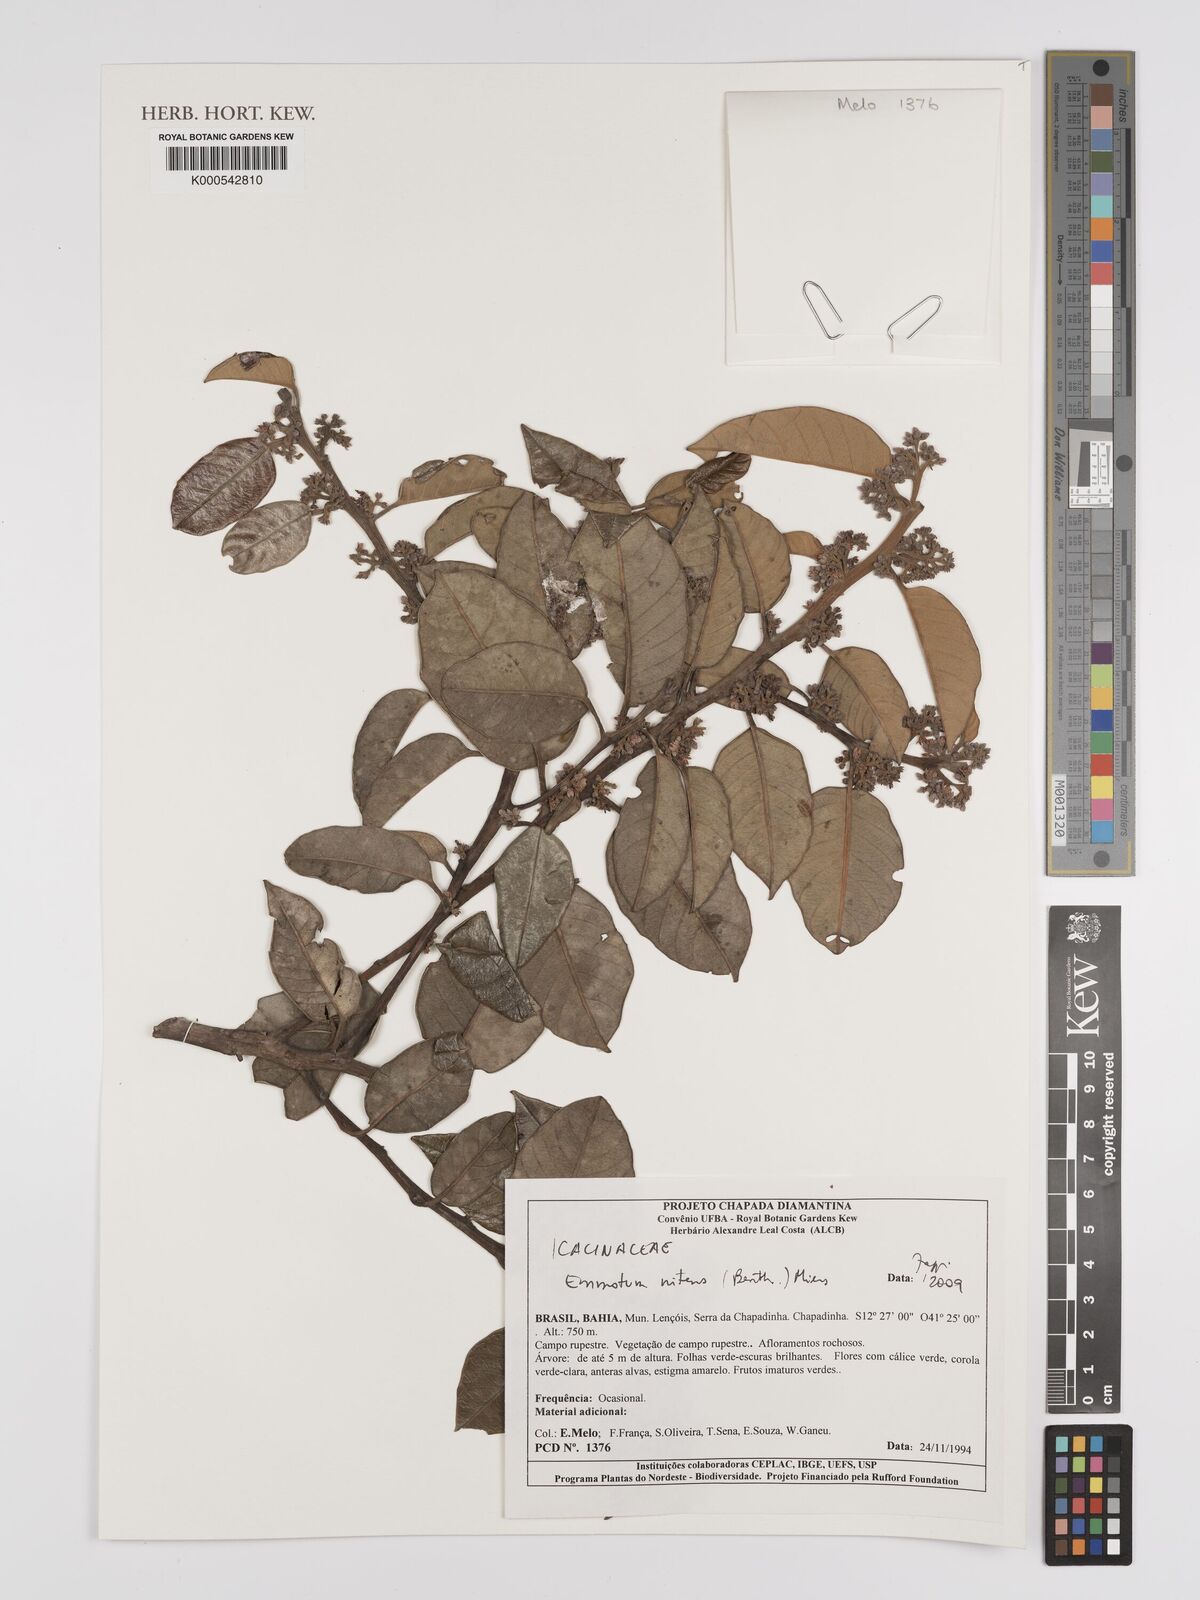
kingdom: Plantae
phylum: Tracheophyta
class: Magnoliopsida
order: Metteniusales
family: Metteniusaceae
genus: Emmotum
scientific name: Emmotum nitens
